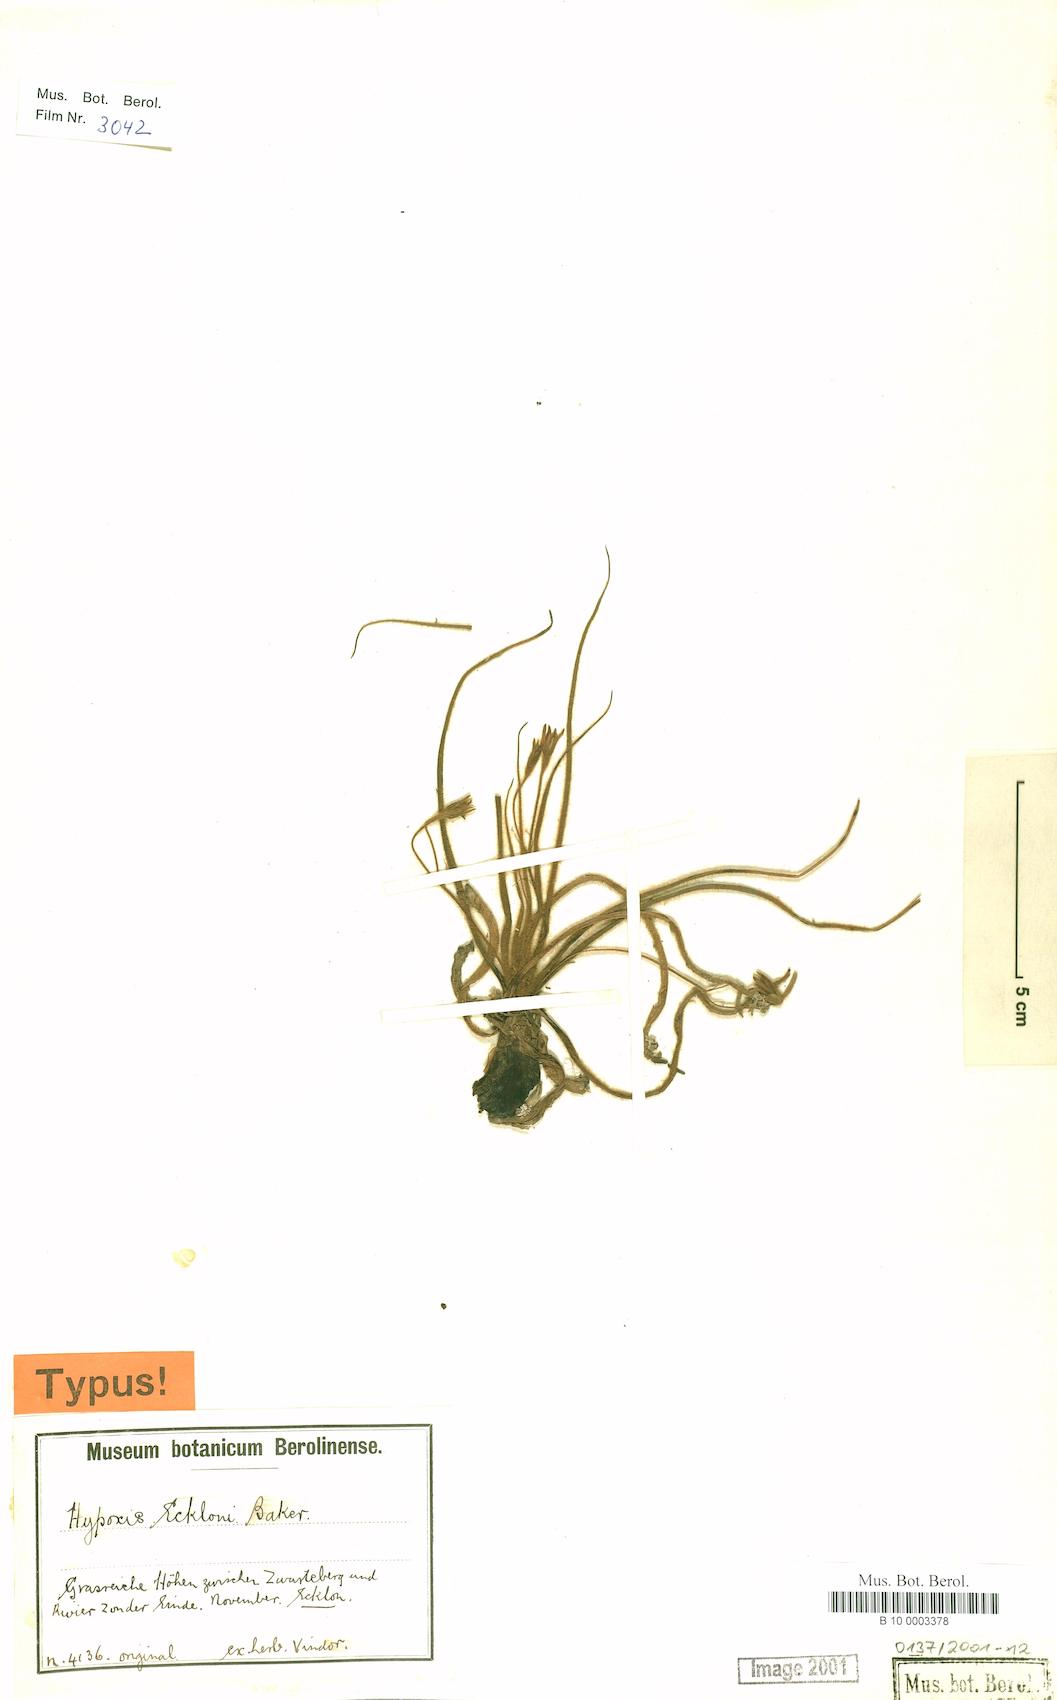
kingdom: Plantae
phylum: Tracheophyta
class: Liliopsida
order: Asparagales
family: Hypoxidaceae
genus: Hypoxis
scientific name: Hypoxis ecklonii
